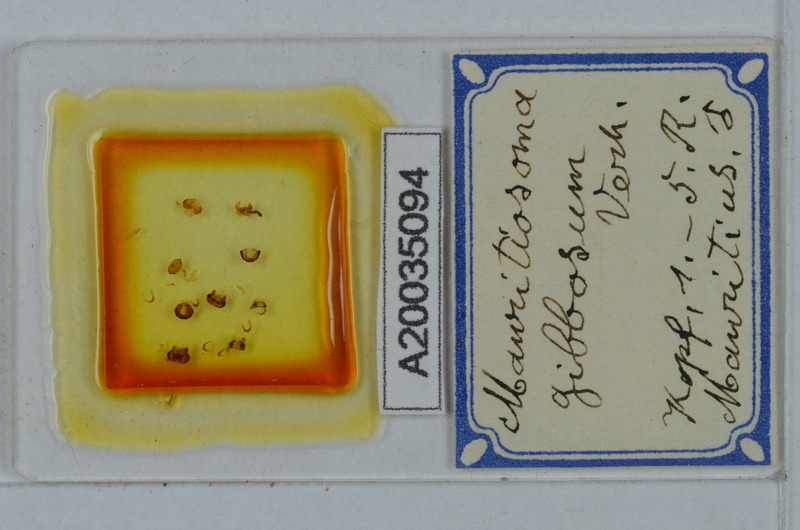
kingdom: Animalia
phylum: Arthropoda
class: Diplopoda
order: Polydesmida
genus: Mauritiosoma
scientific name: Mauritiosoma gibbosum
